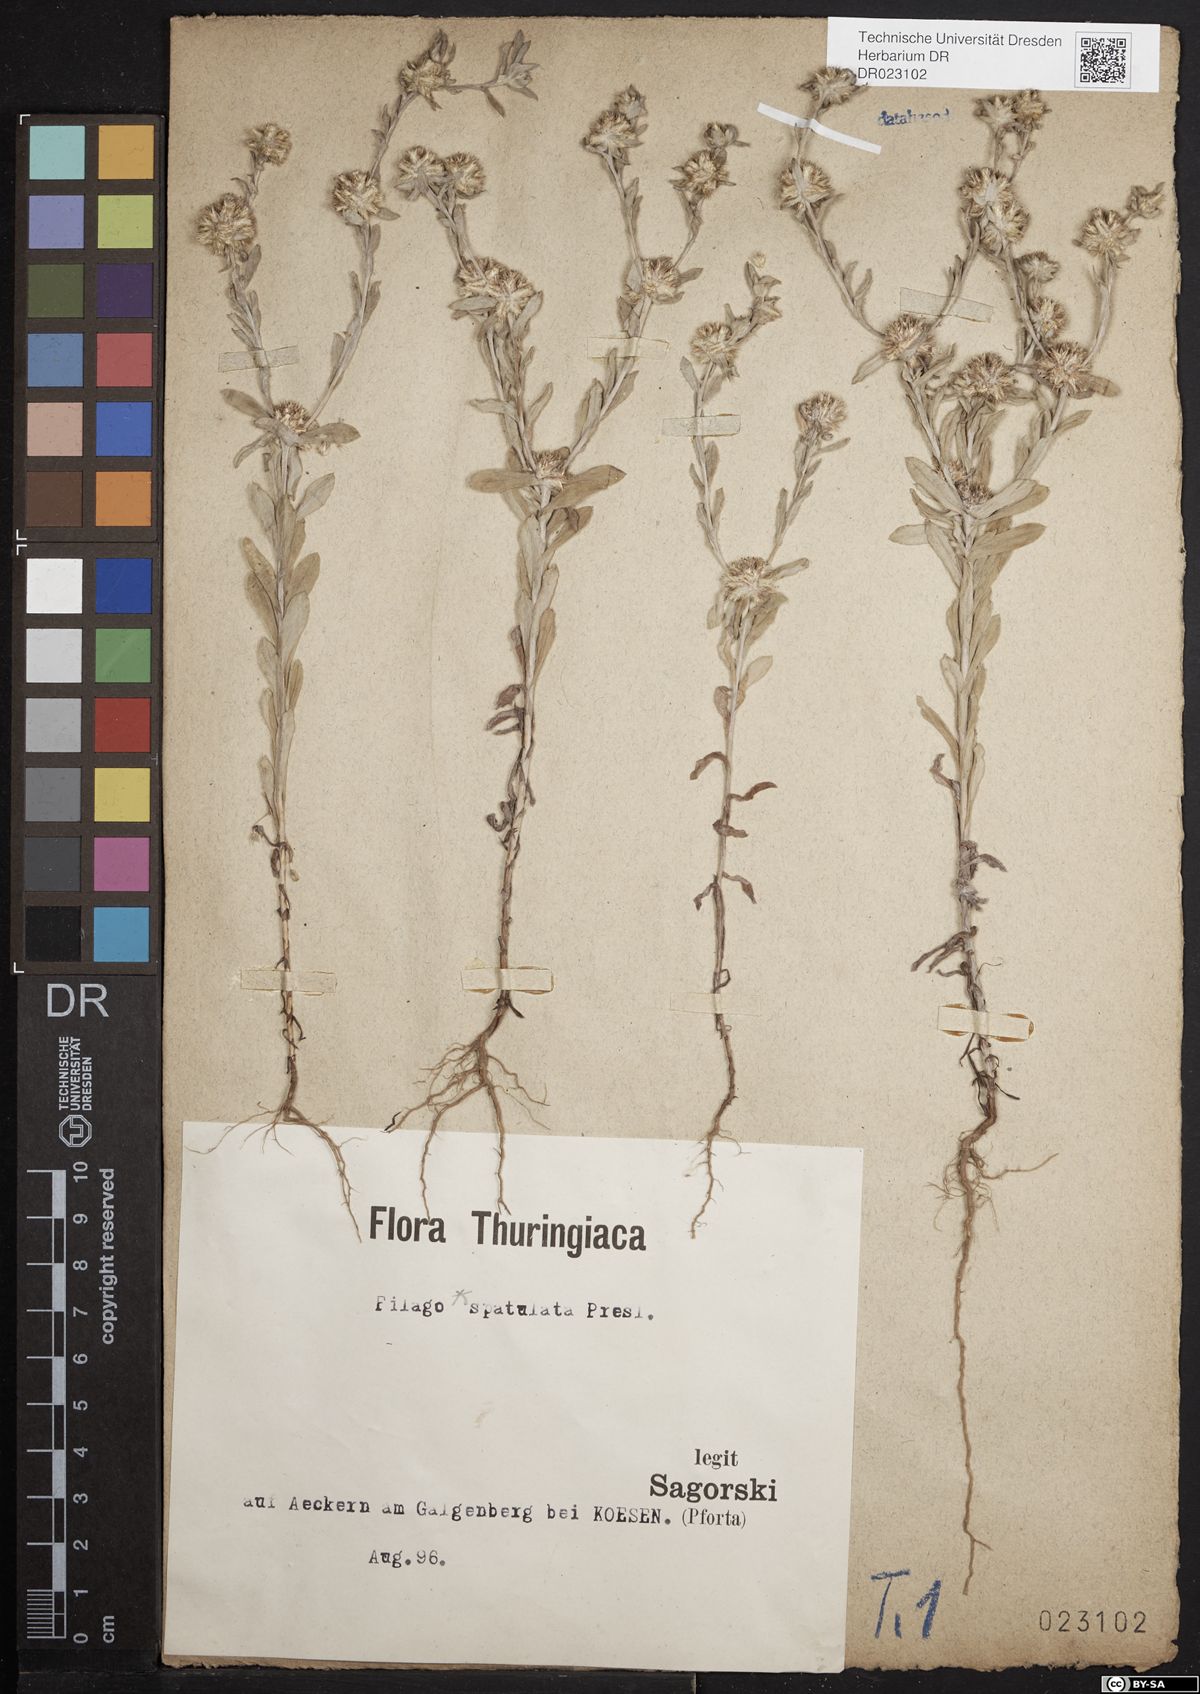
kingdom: Plantae
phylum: Tracheophyta
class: Magnoliopsida
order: Asterales
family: Asteraceae
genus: Filago
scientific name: Filago germanica
